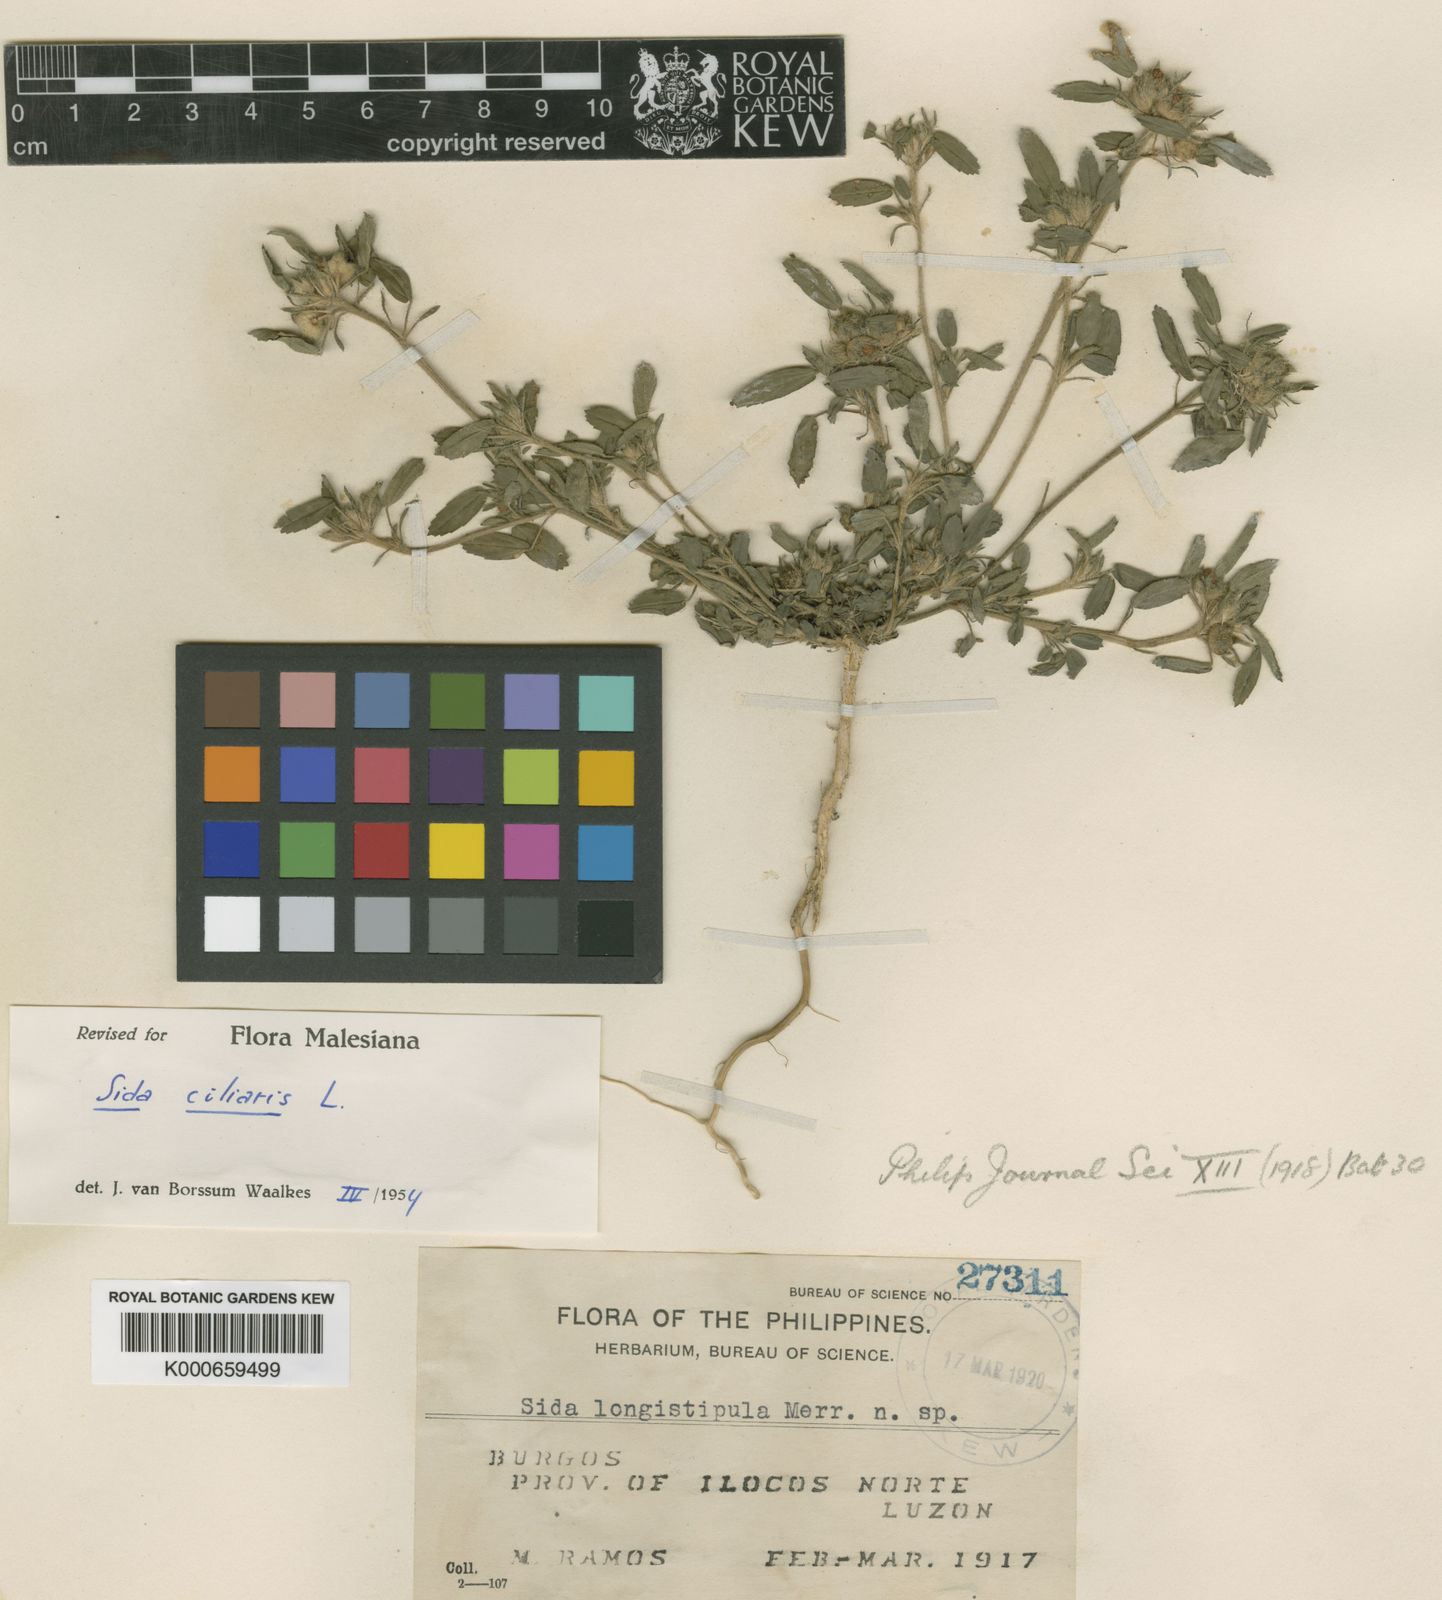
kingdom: Plantae
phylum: Tracheophyta
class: Magnoliopsida
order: Malvales
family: Malvaceae
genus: Sida
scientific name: Sida ciliaris
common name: Bracted fanpetals
